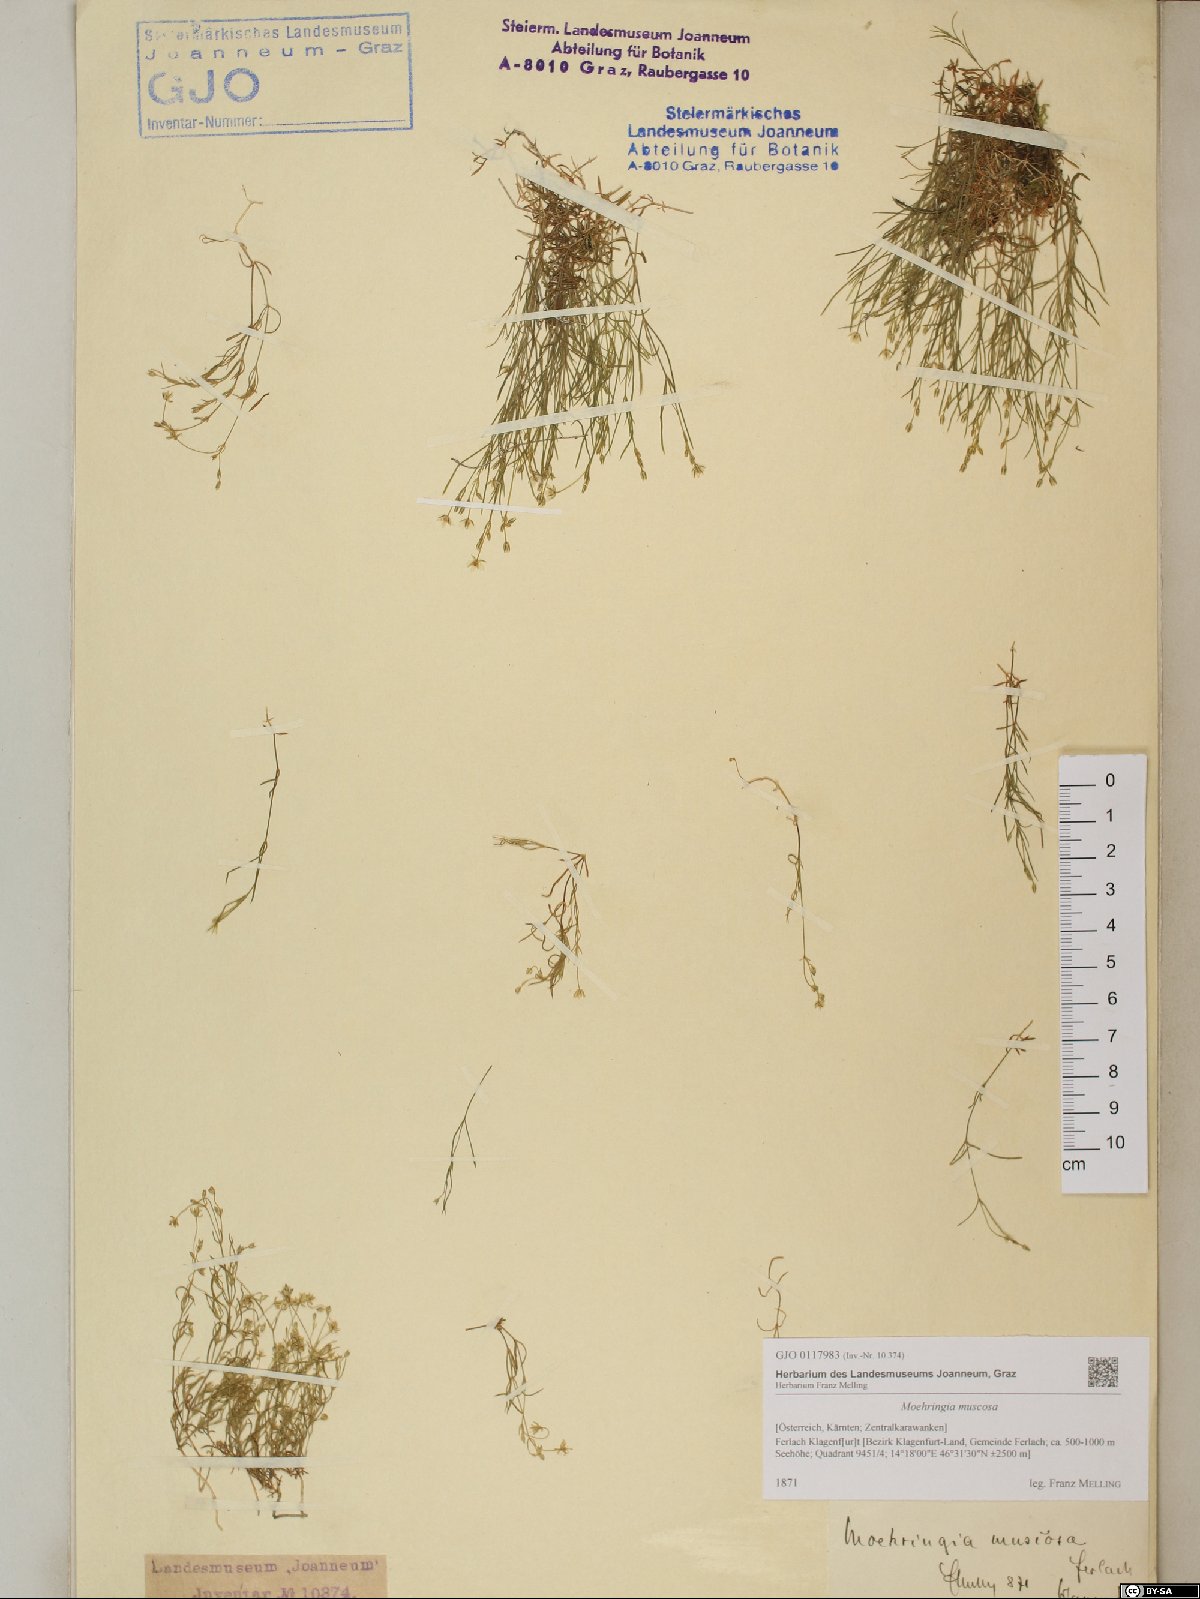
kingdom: Plantae
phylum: Tracheophyta
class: Magnoliopsida
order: Caryophyllales
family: Caryophyllaceae
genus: Moehringia
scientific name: Moehringia muscosa
